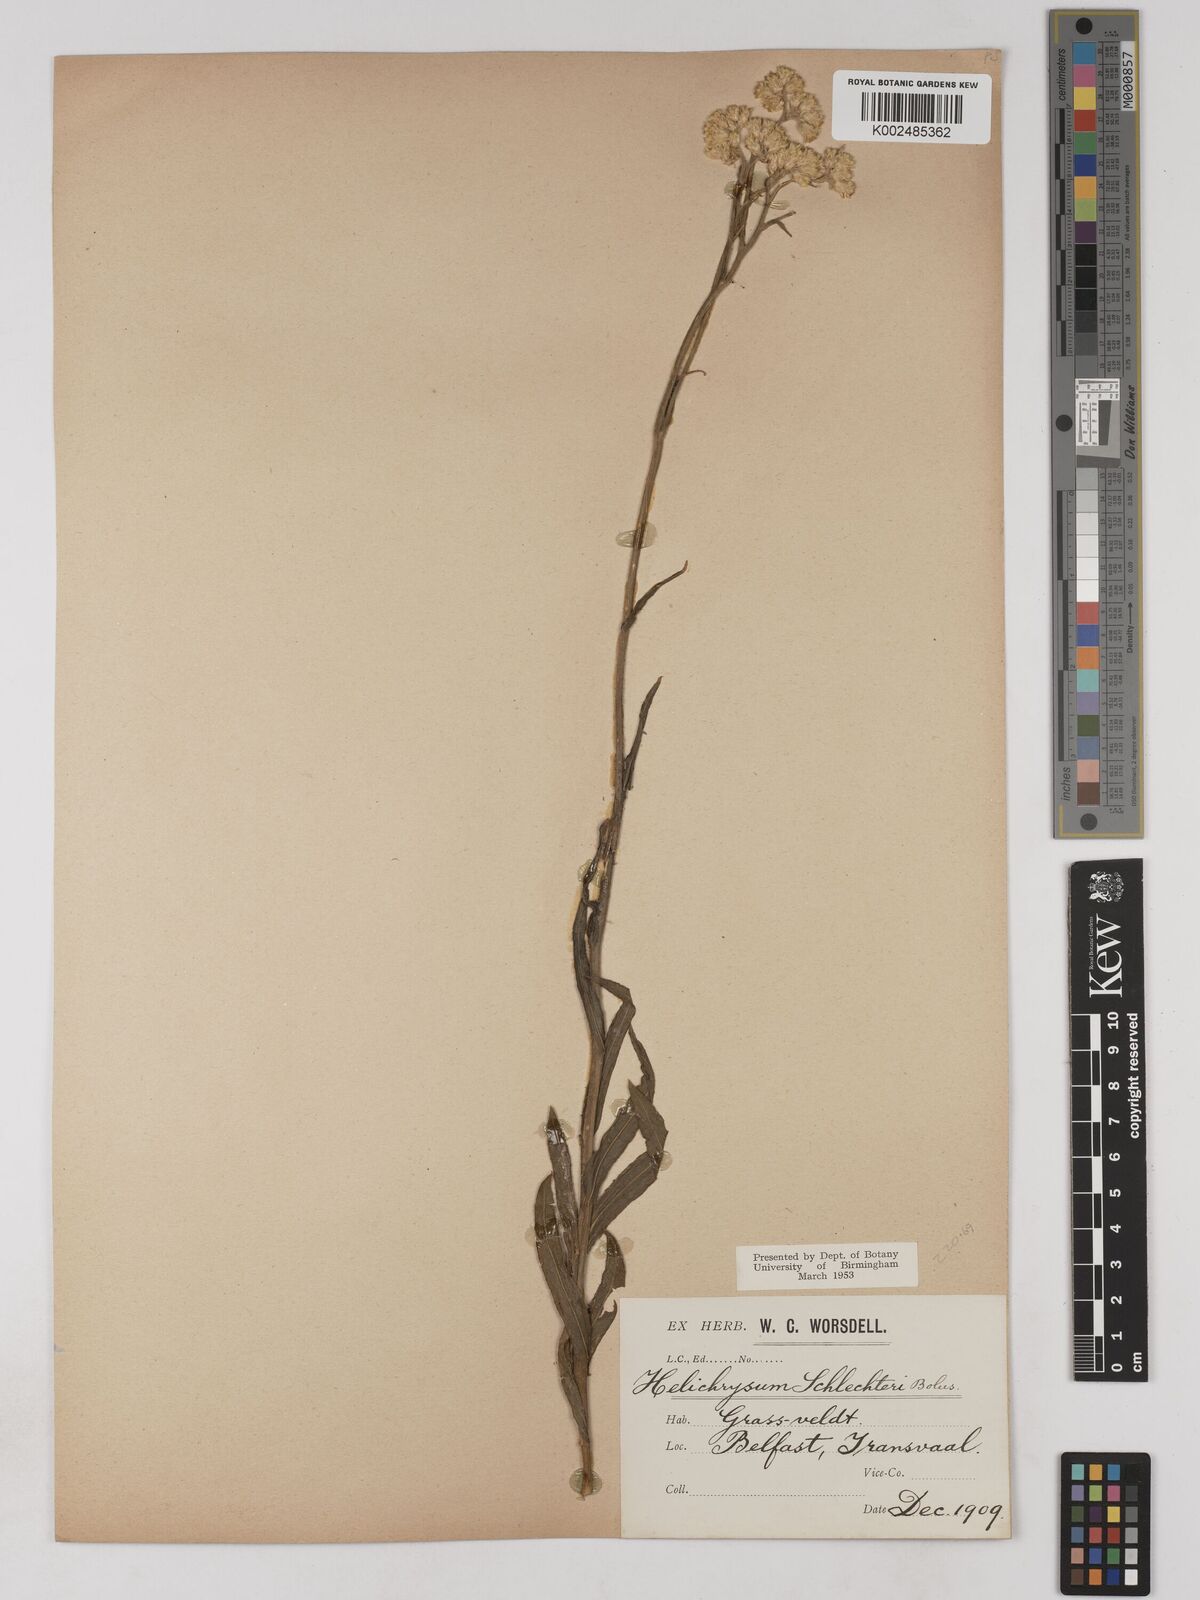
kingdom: Plantae
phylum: Tracheophyta
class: Magnoliopsida
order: Asterales
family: Asteraceae
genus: Helichrysum
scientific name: Helichrysum acutatum
